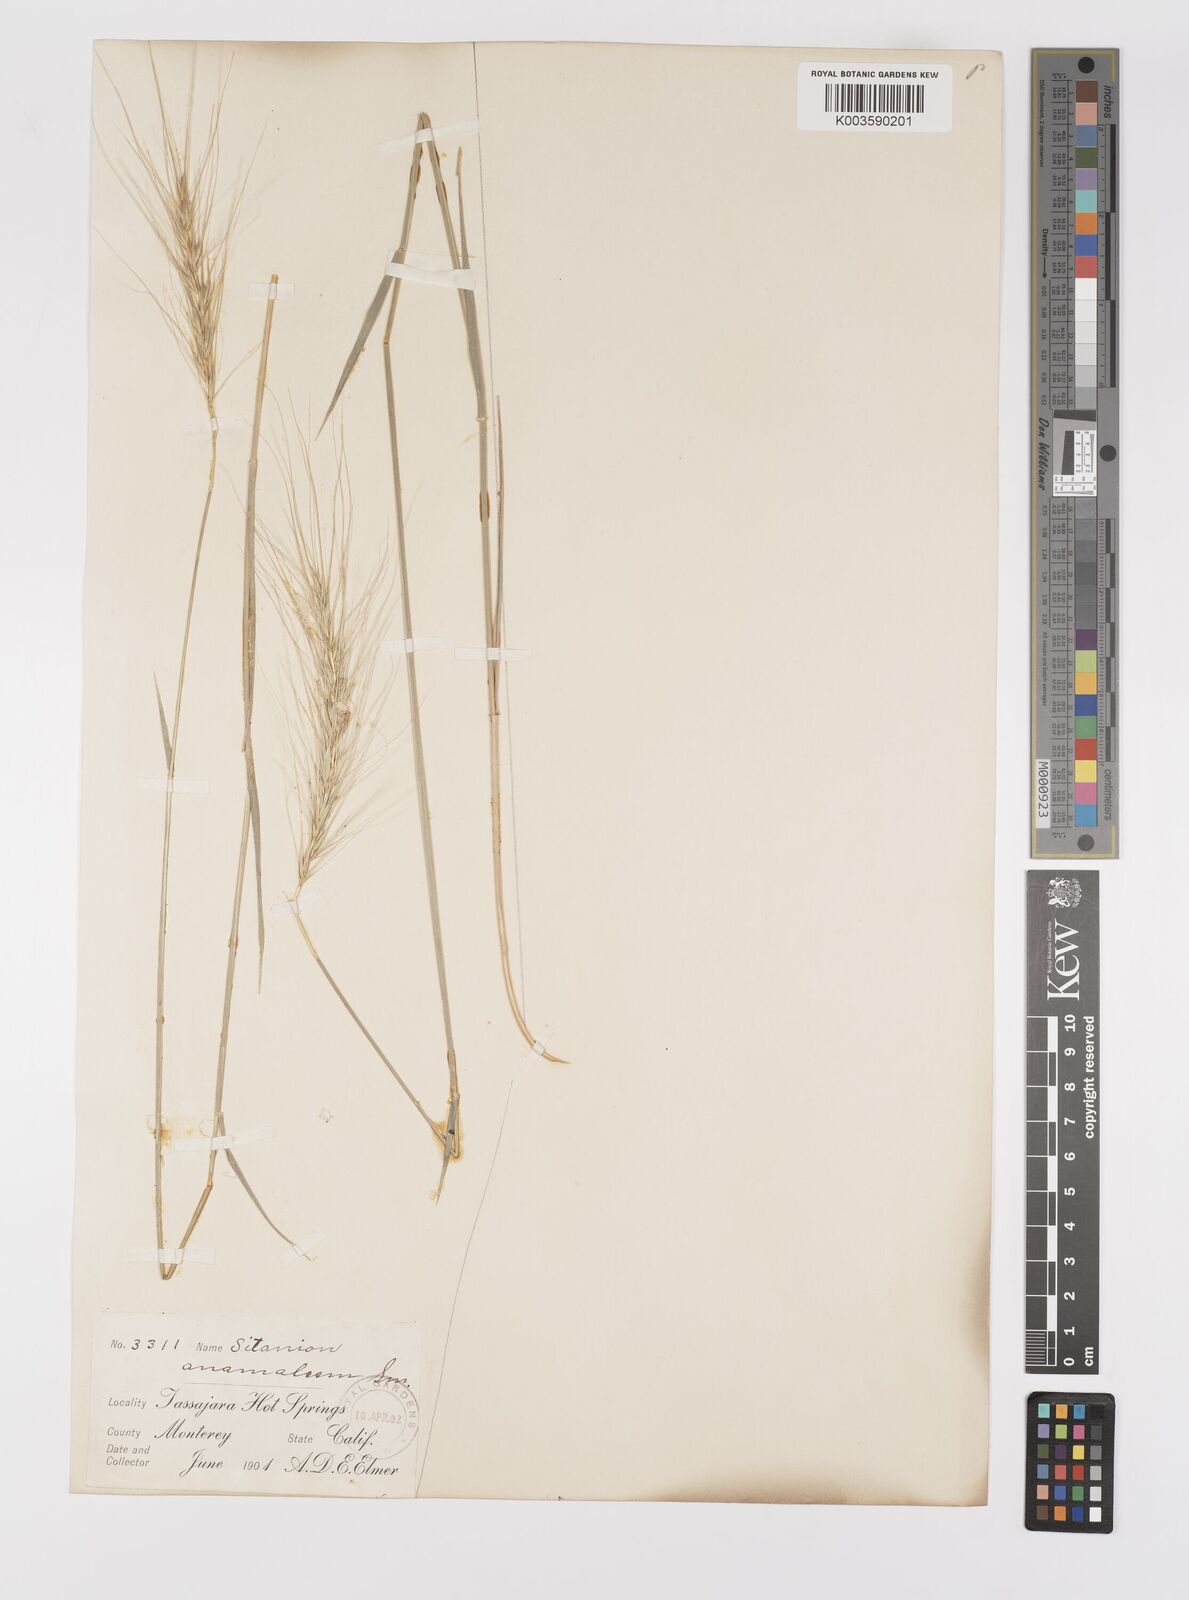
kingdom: Plantae
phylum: Tracheophyta
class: Liliopsida
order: Poales
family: Poaceae
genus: Elymus
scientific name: Elymus hansenii
